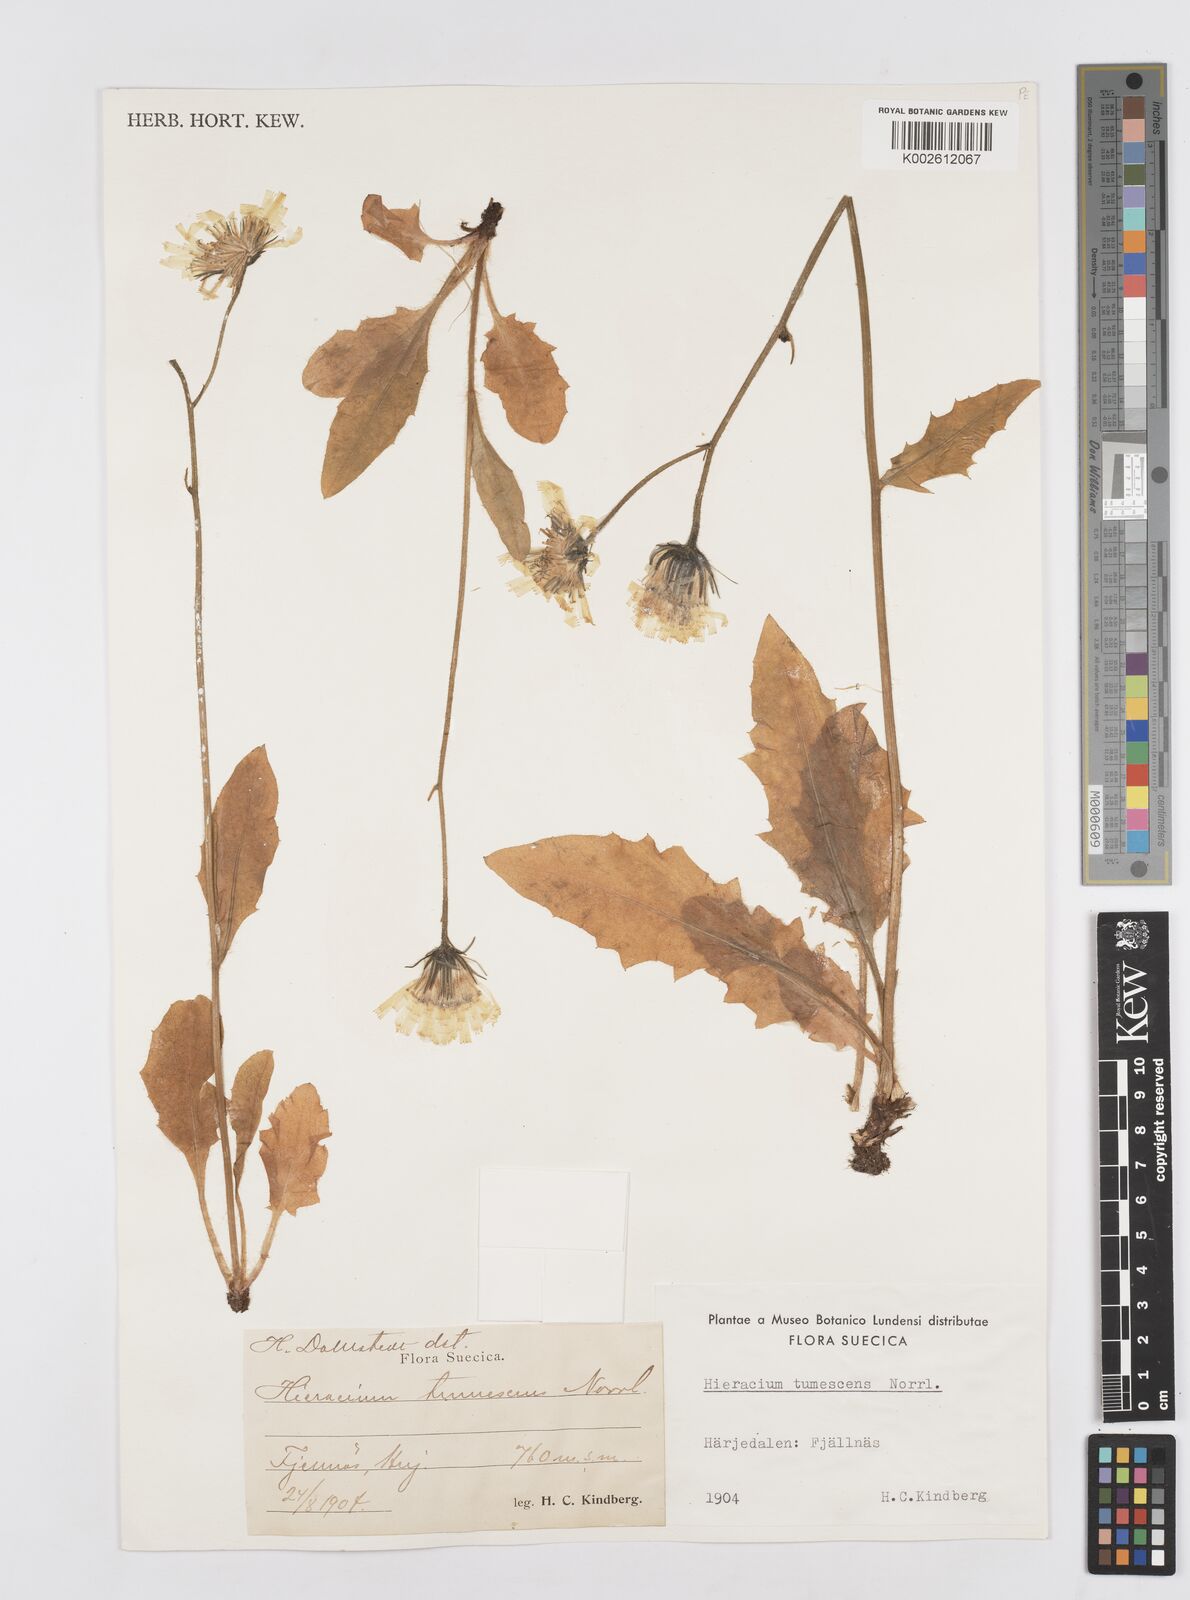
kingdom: Plantae
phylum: Tracheophyta
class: Magnoliopsida
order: Asterales
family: Asteraceae
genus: Hieracium
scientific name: Hieracium tumescens
